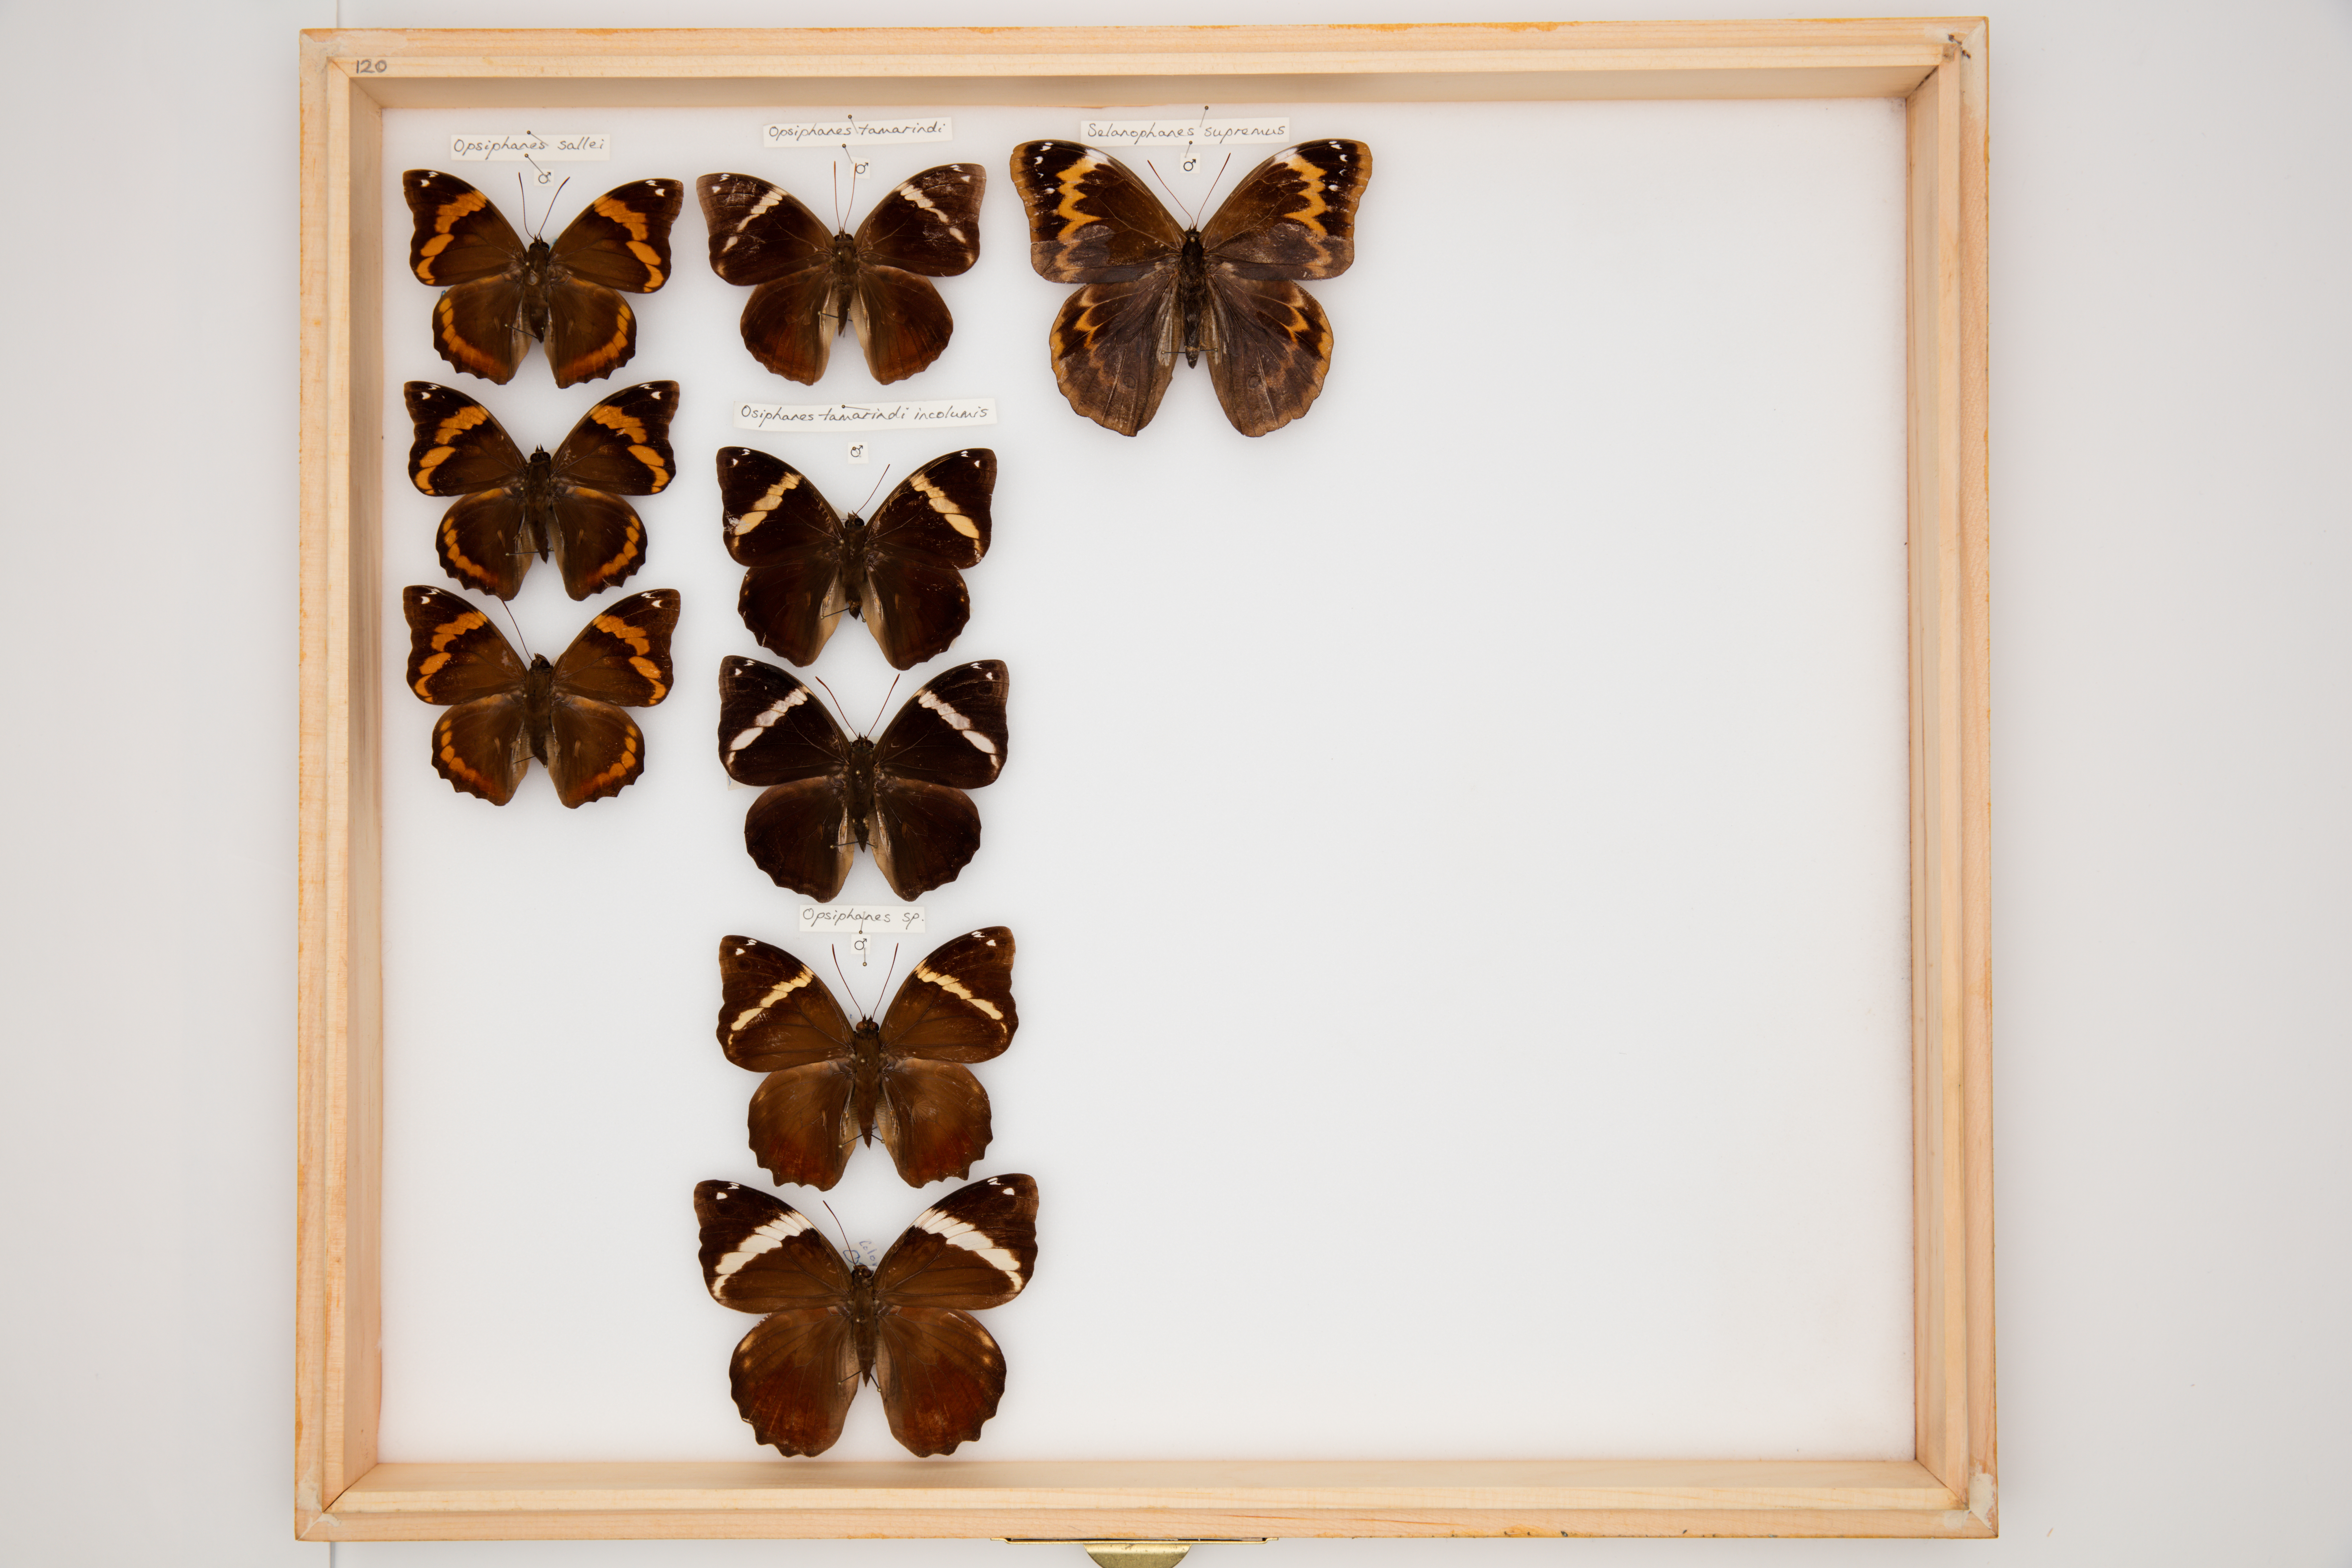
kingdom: Animalia
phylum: Arthropoda
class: Insecta
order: Lepidoptera
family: Nymphalidae
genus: Opsiphanes
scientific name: Opsiphanes
